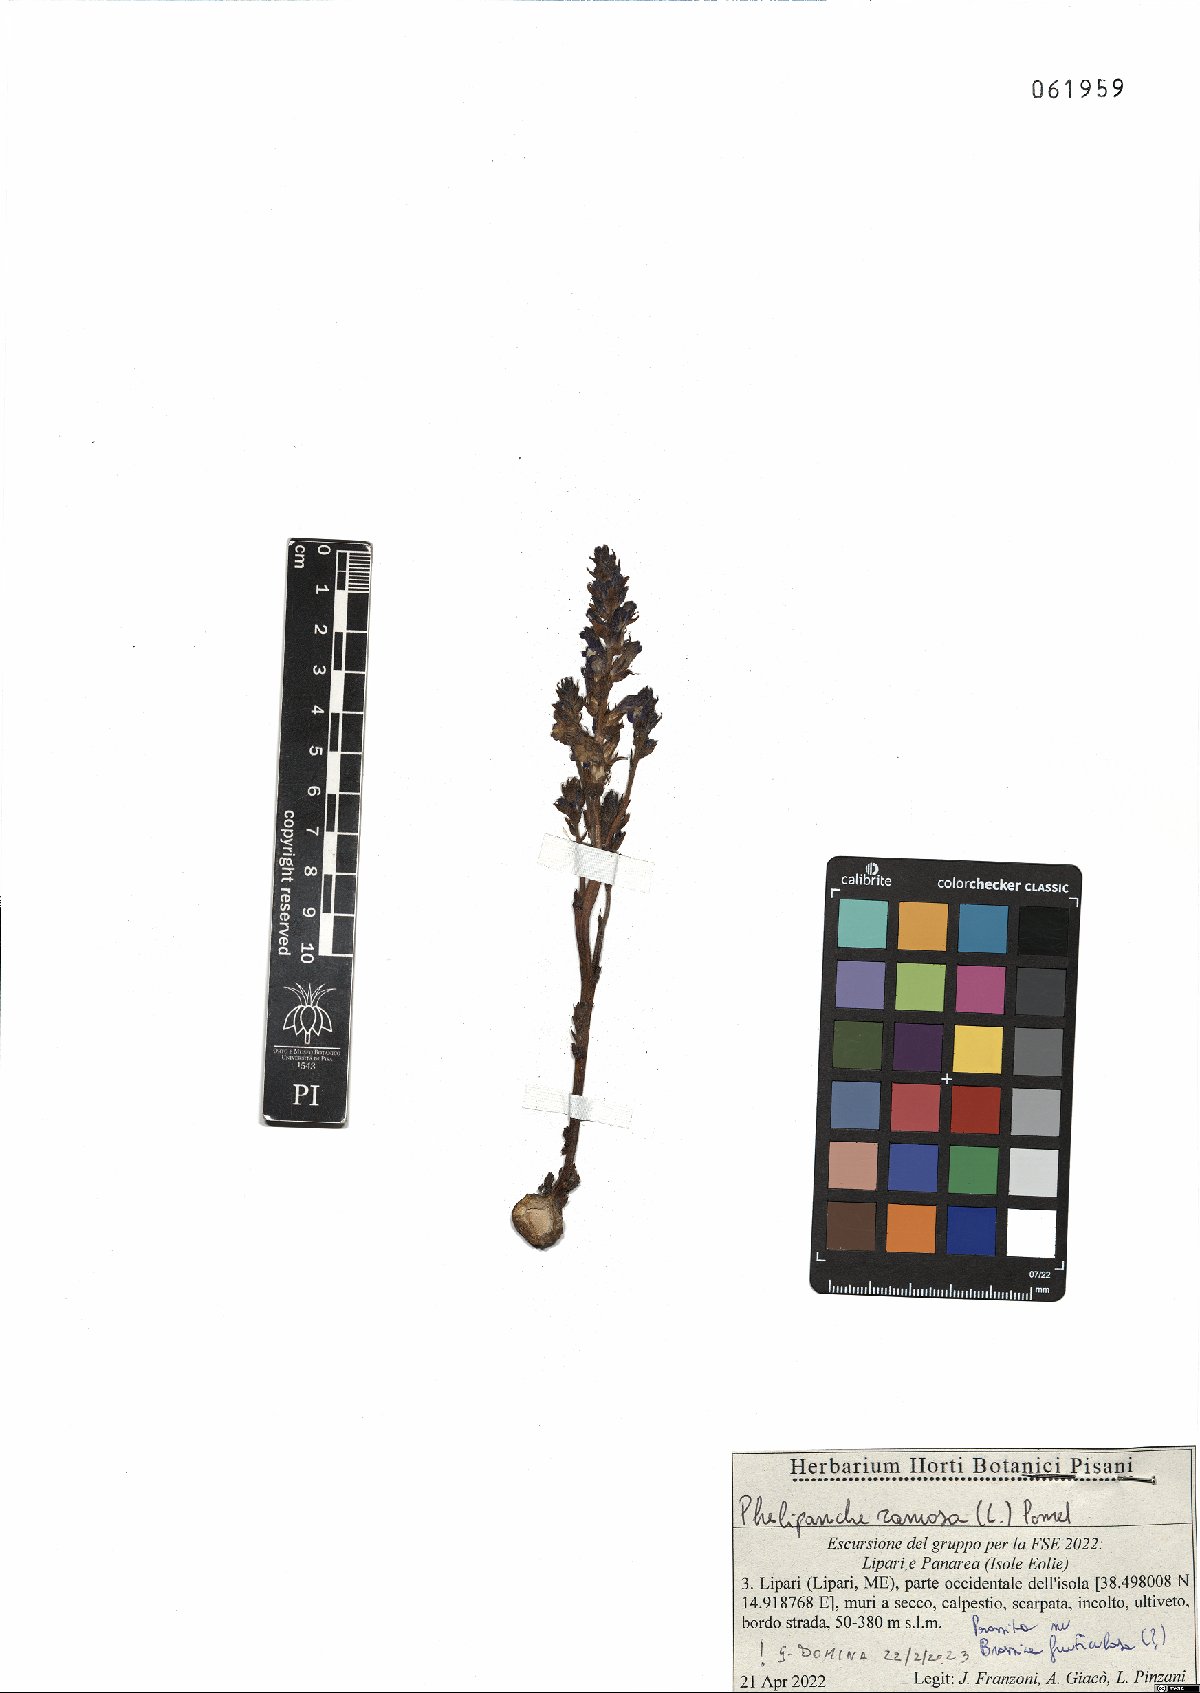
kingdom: Plantae
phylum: Tracheophyta
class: Magnoliopsida
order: Lamiales
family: Orobanchaceae
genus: Phelipanche
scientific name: Phelipanche ramosa
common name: Branched broomrape
